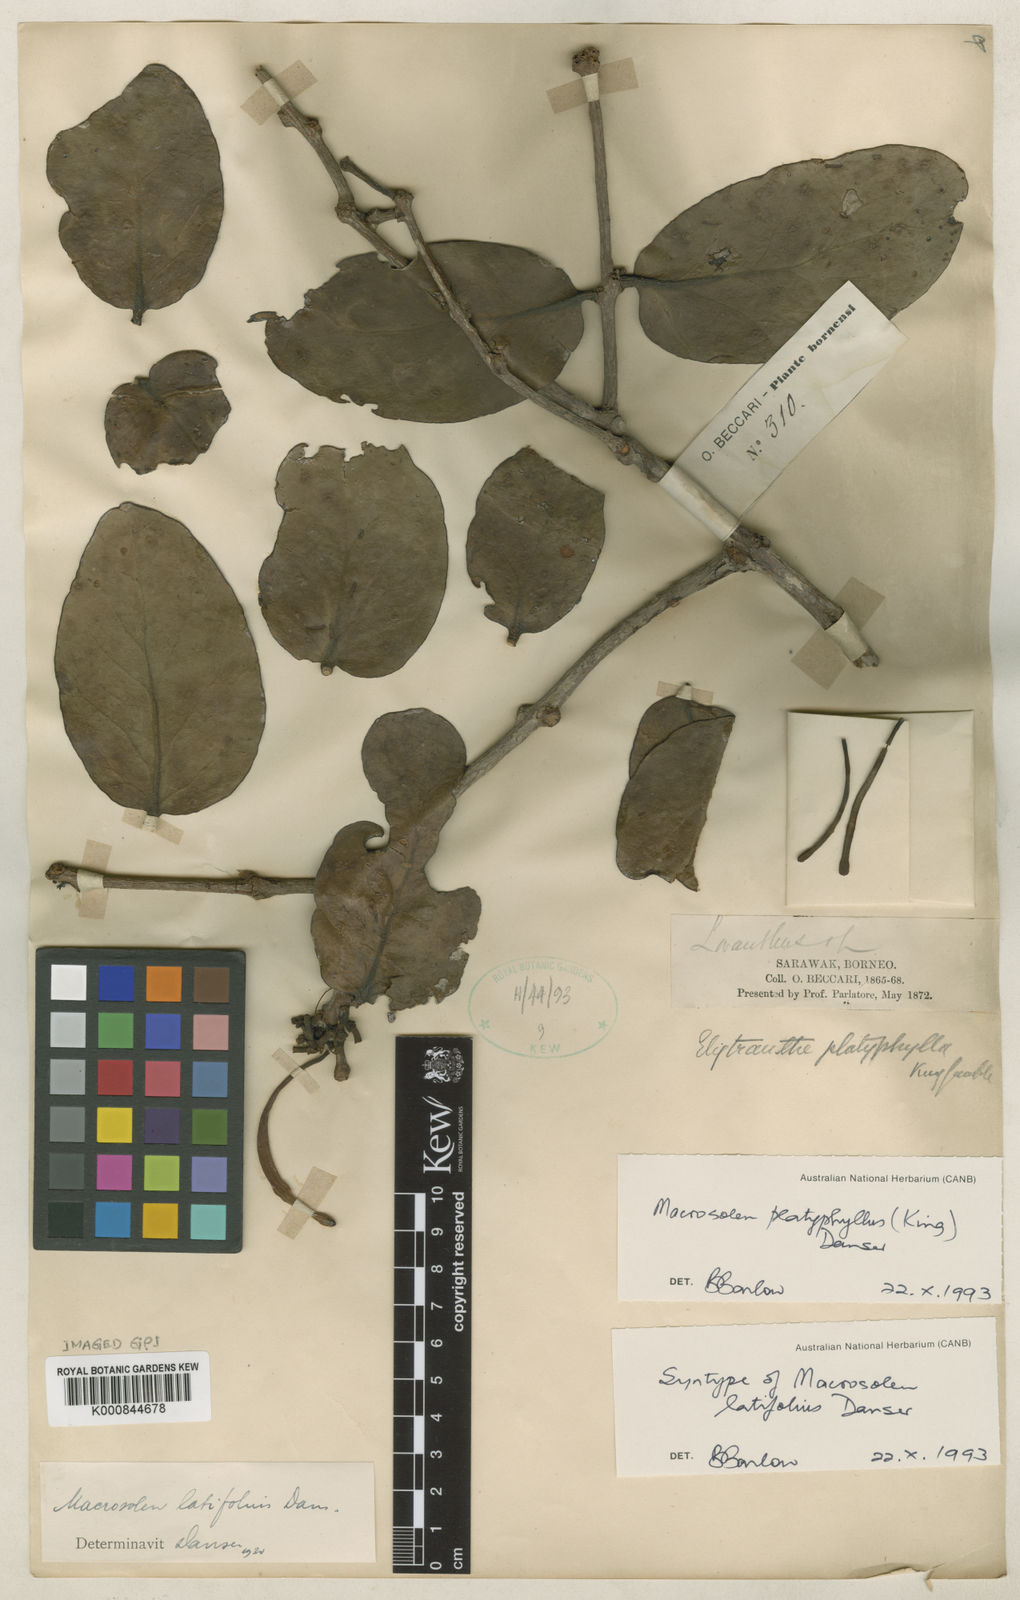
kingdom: Plantae
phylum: Tracheophyta
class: Magnoliopsida
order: Santalales
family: Loranthaceae
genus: Macrosolen
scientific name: Macrosolen platyphyllus
